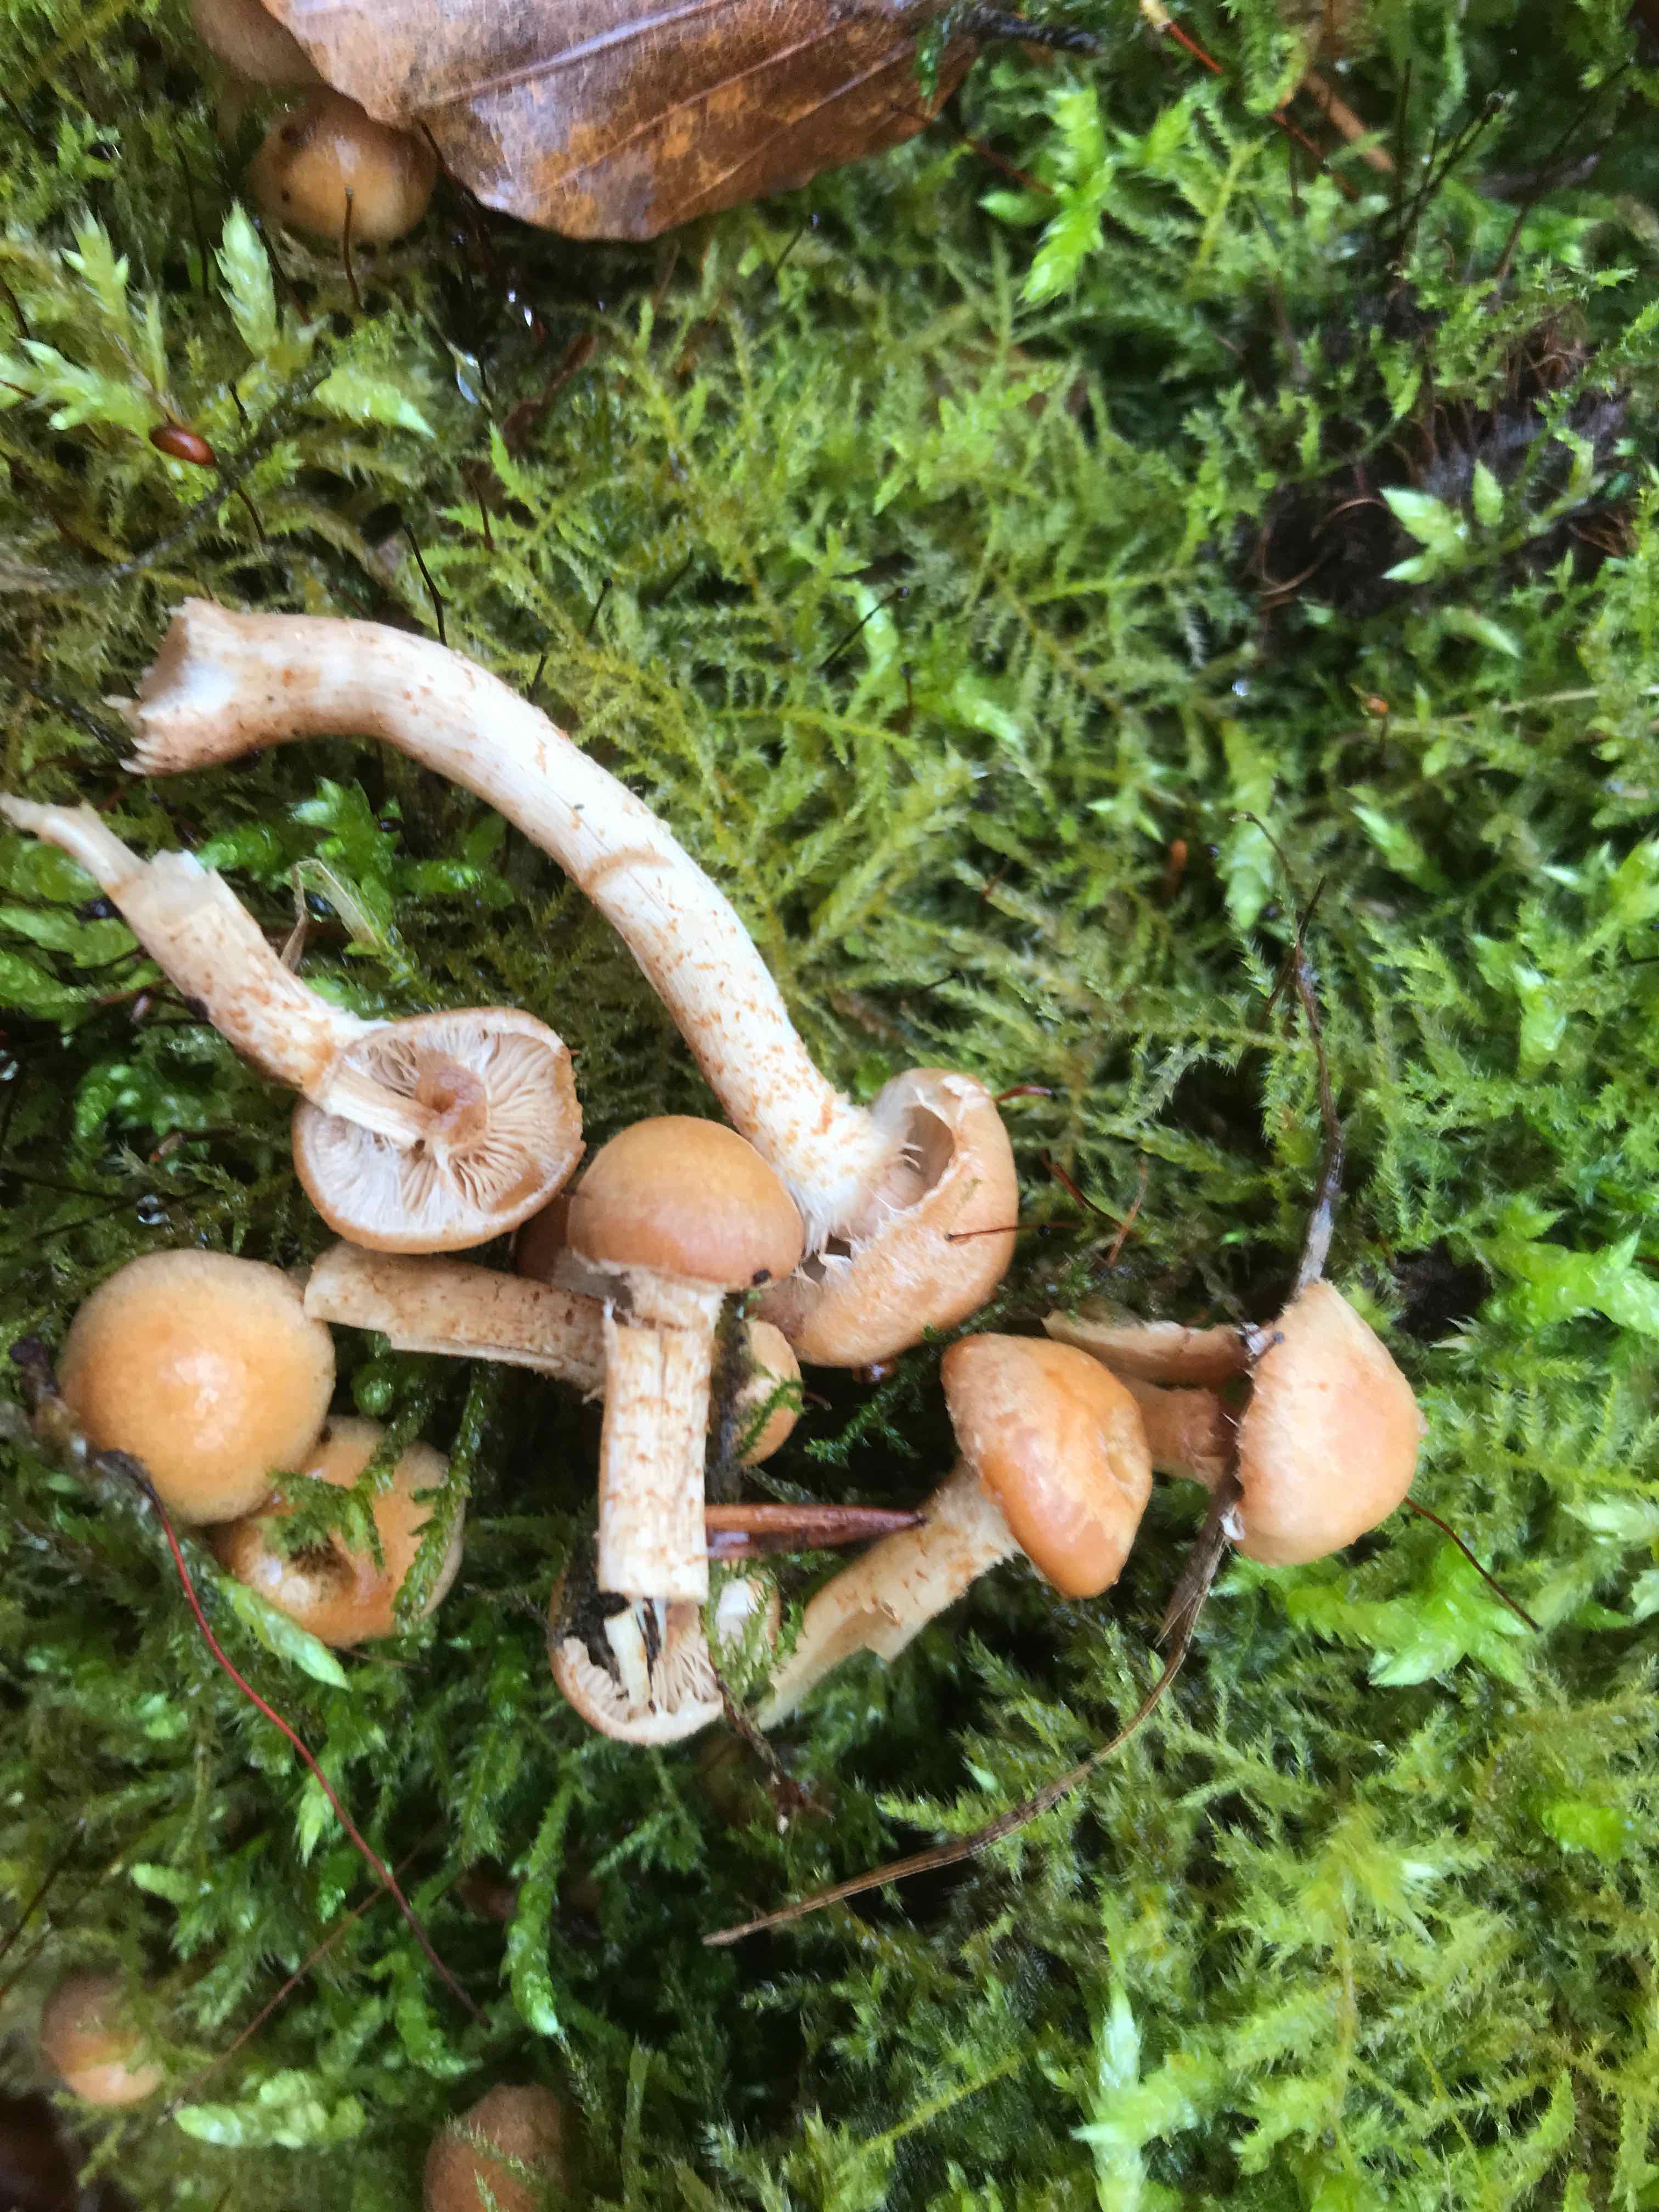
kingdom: Fungi
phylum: Basidiomycota
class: Agaricomycetes
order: Agaricales
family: Strophariaceae
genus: Kuehneromyces
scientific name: Kuehneromyces mutabilis
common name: foranderlig skælhat
